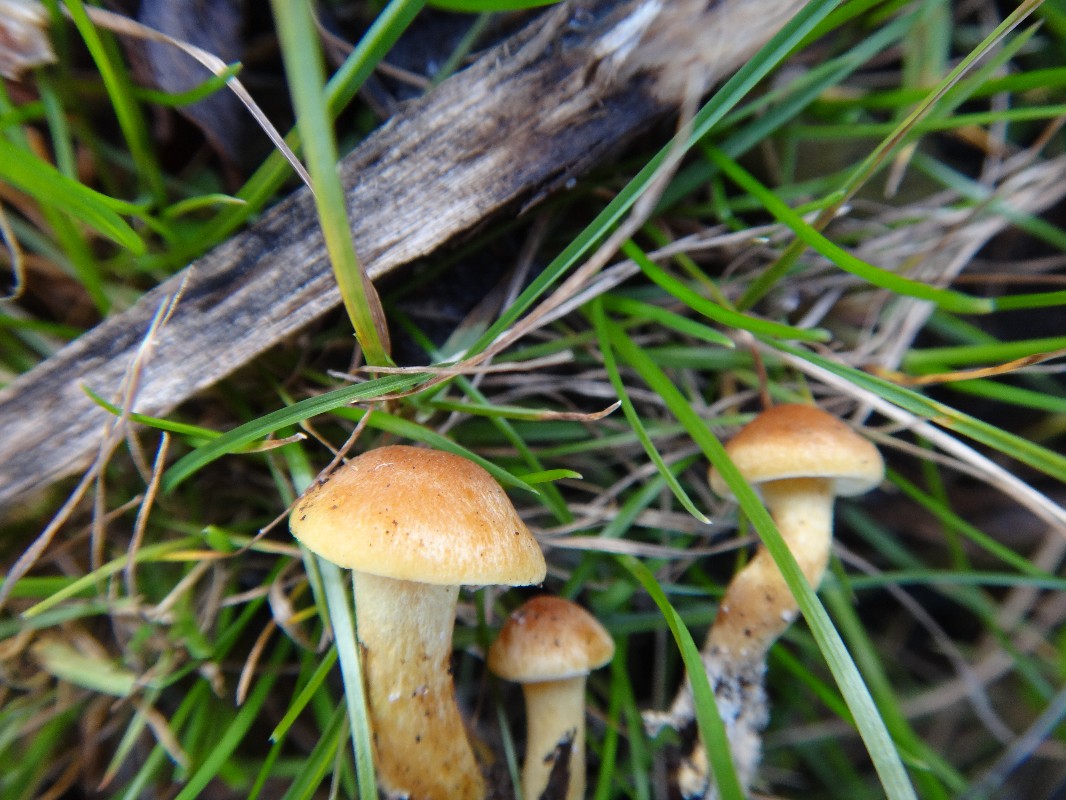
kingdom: Fungi
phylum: Basidiomycota
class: Agaricomycetes
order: Agaricales
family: Strophariaceae
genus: Hypholoma
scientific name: Hypholoma fasciculare
